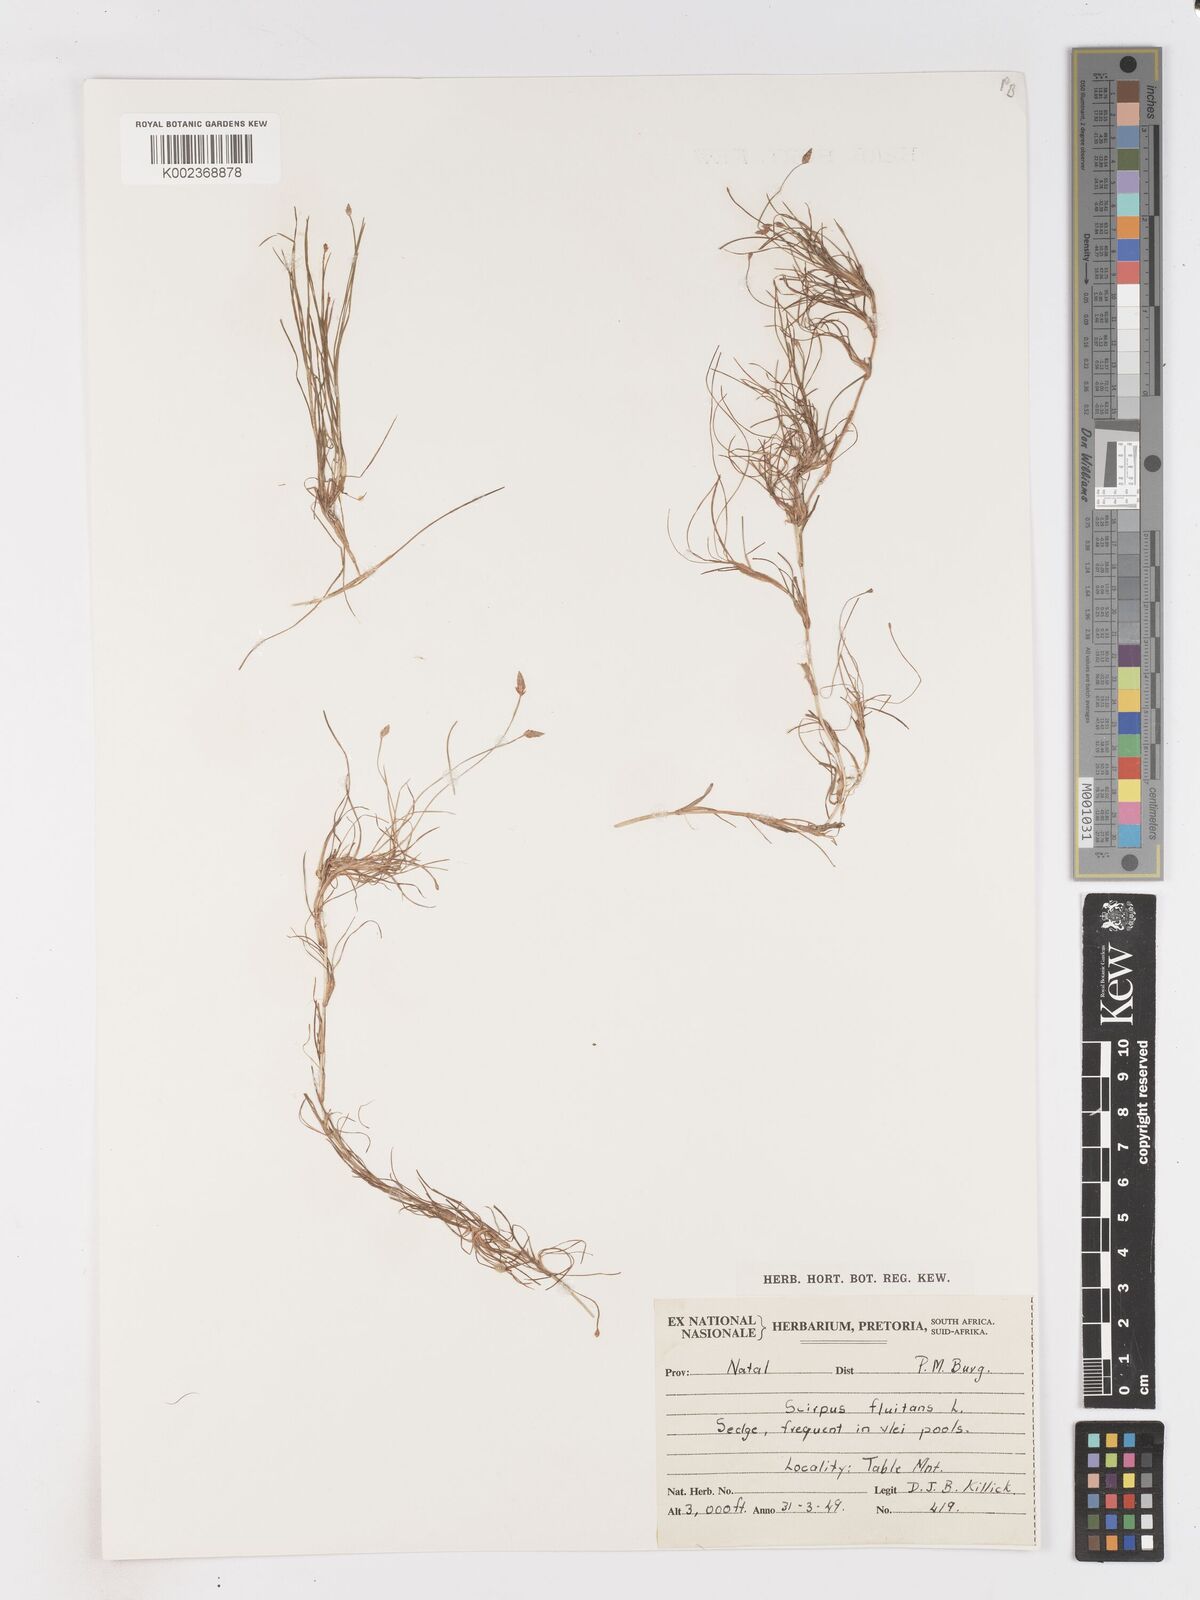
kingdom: Plantae
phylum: Tracheophyta
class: Liliopsida
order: Poales
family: Cyperaceae
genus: Isolepis
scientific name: Isolepis fluitans
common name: Floating club-rush
